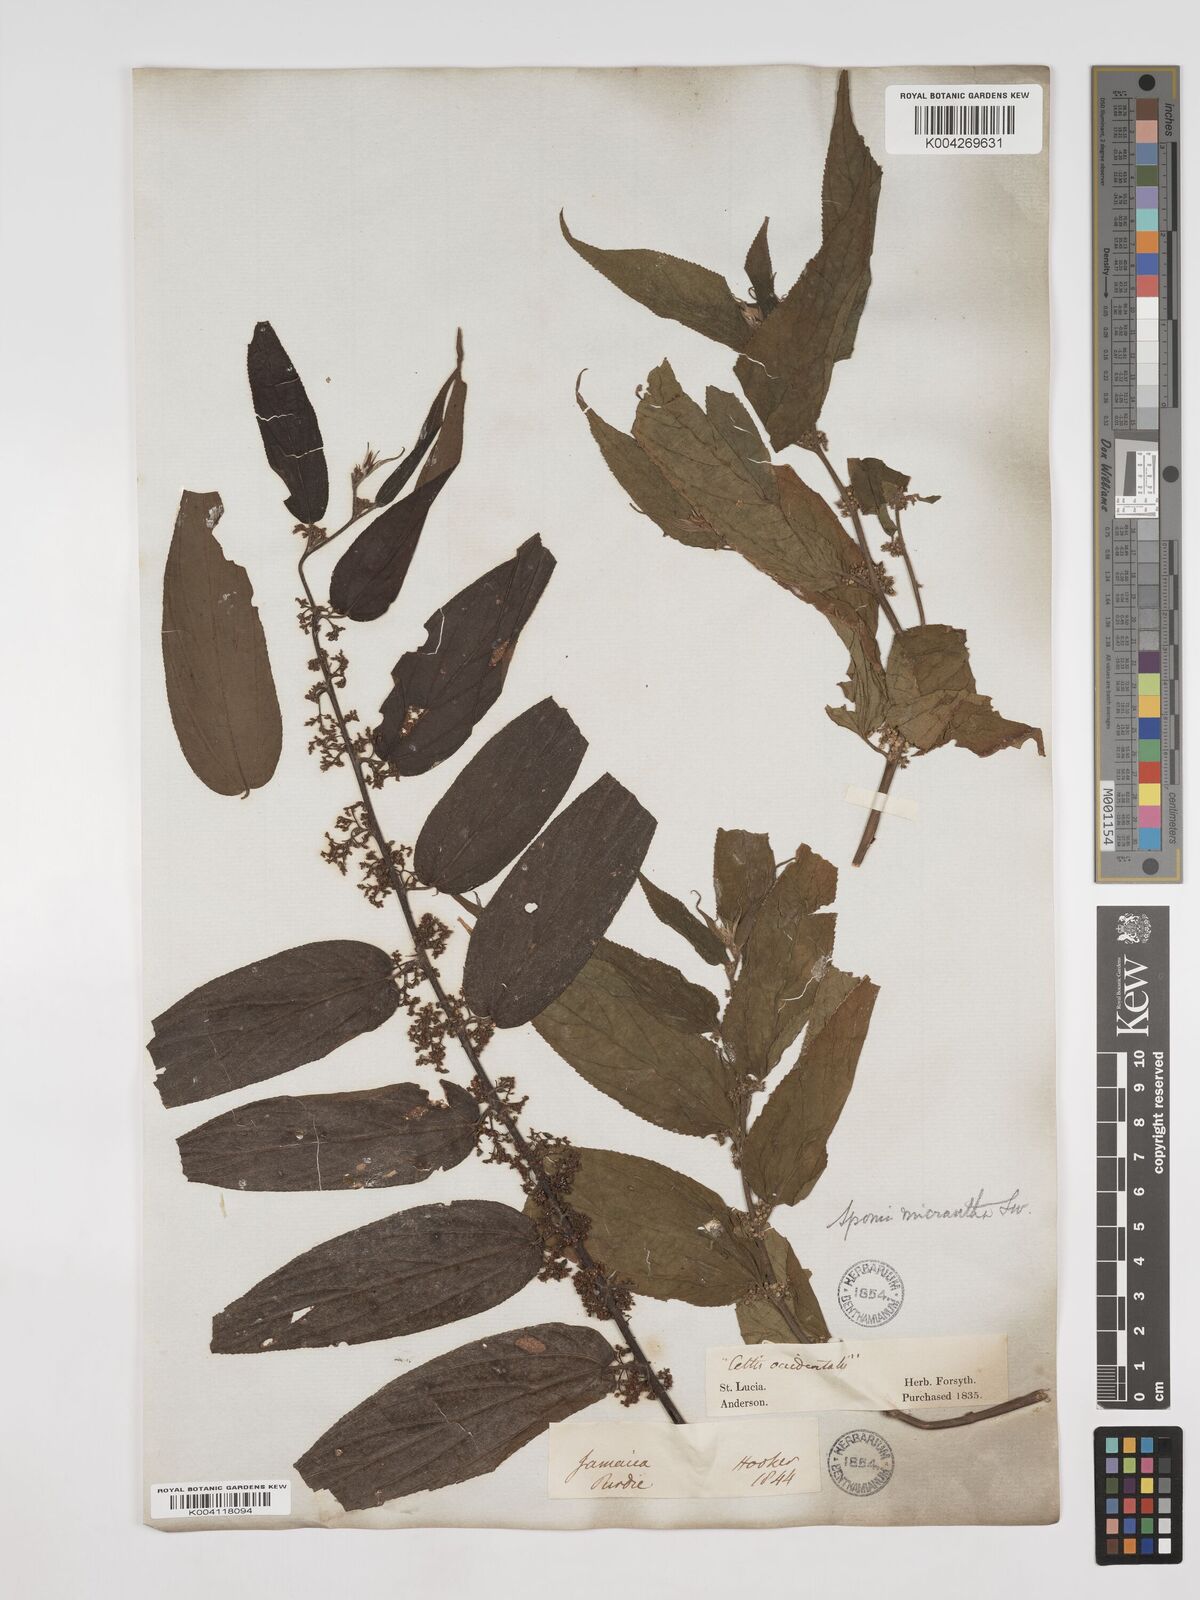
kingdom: Plantae
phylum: Tracheophyta
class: Magnoliopsida
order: Rosales
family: Cannabaceae
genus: Trema
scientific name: Trema micranthum
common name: Jamaican nettletree
